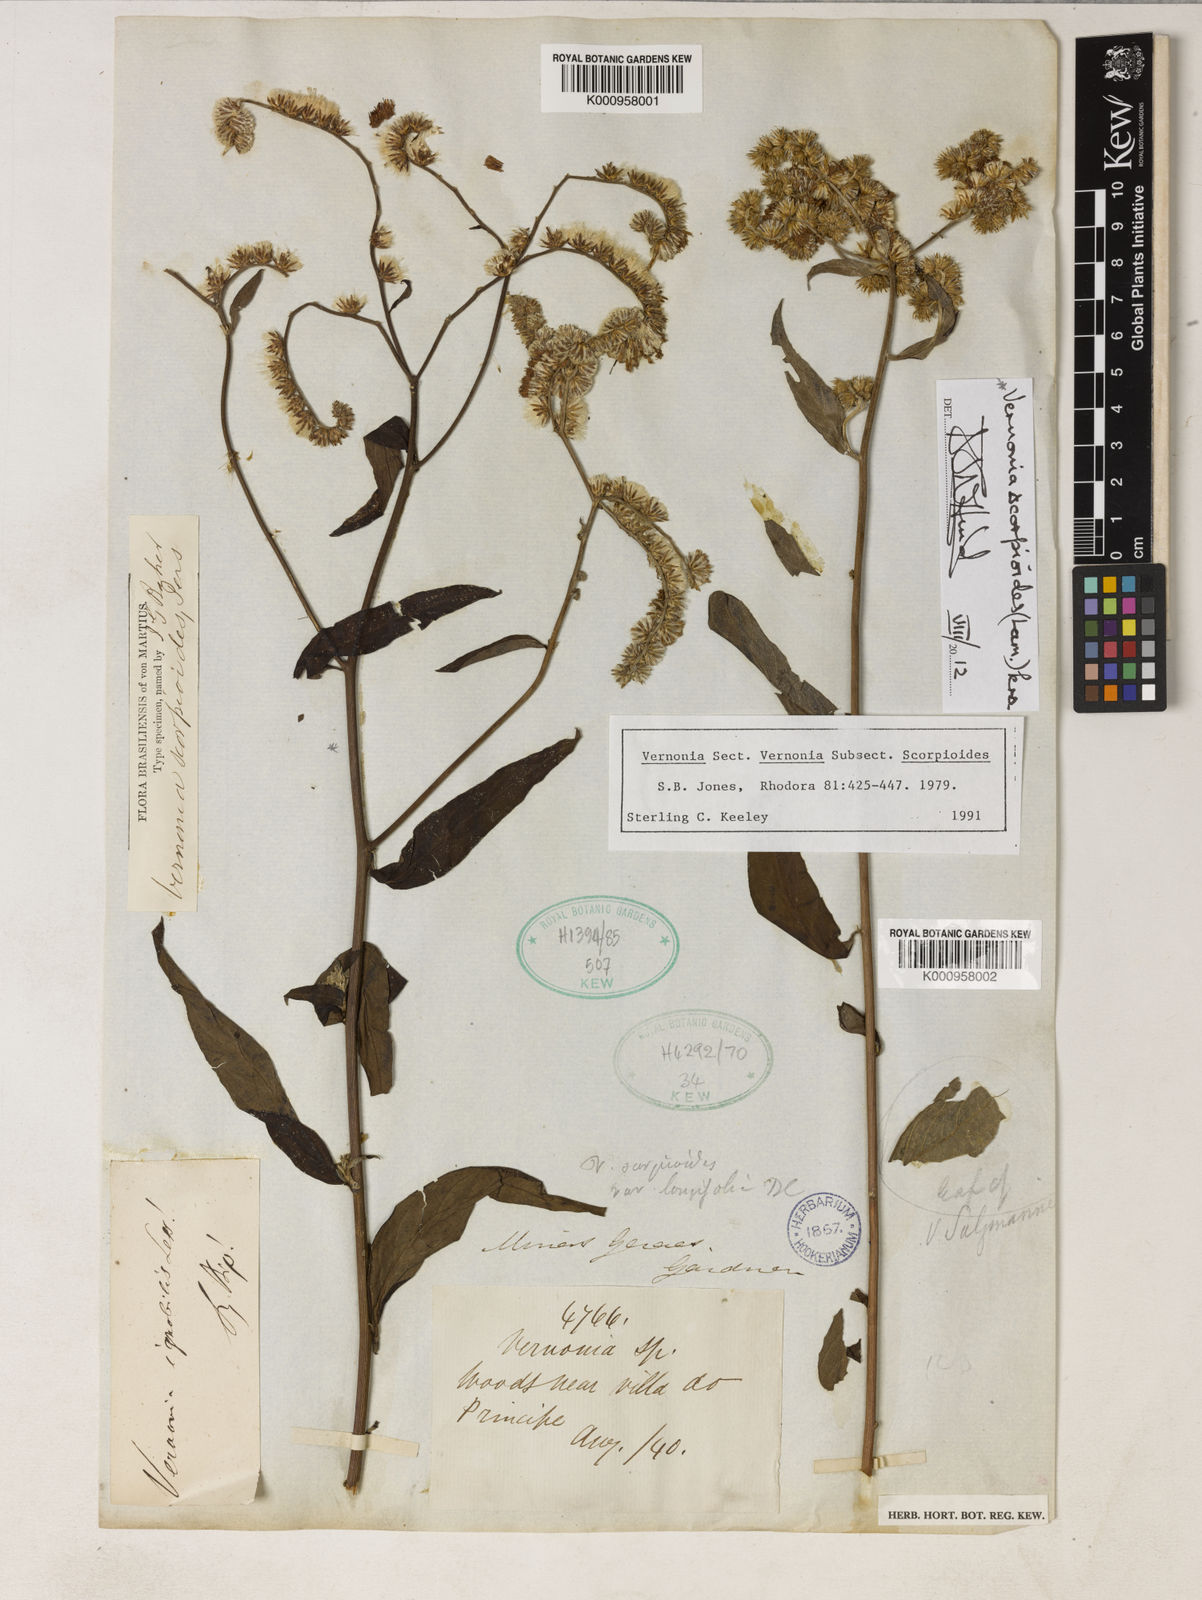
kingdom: Plantae
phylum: Tracheophyta
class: Magnoliopsida
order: Asterales
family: Asteraceae
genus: Cyrtocymura
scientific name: Cyrtocymura scorpioides
